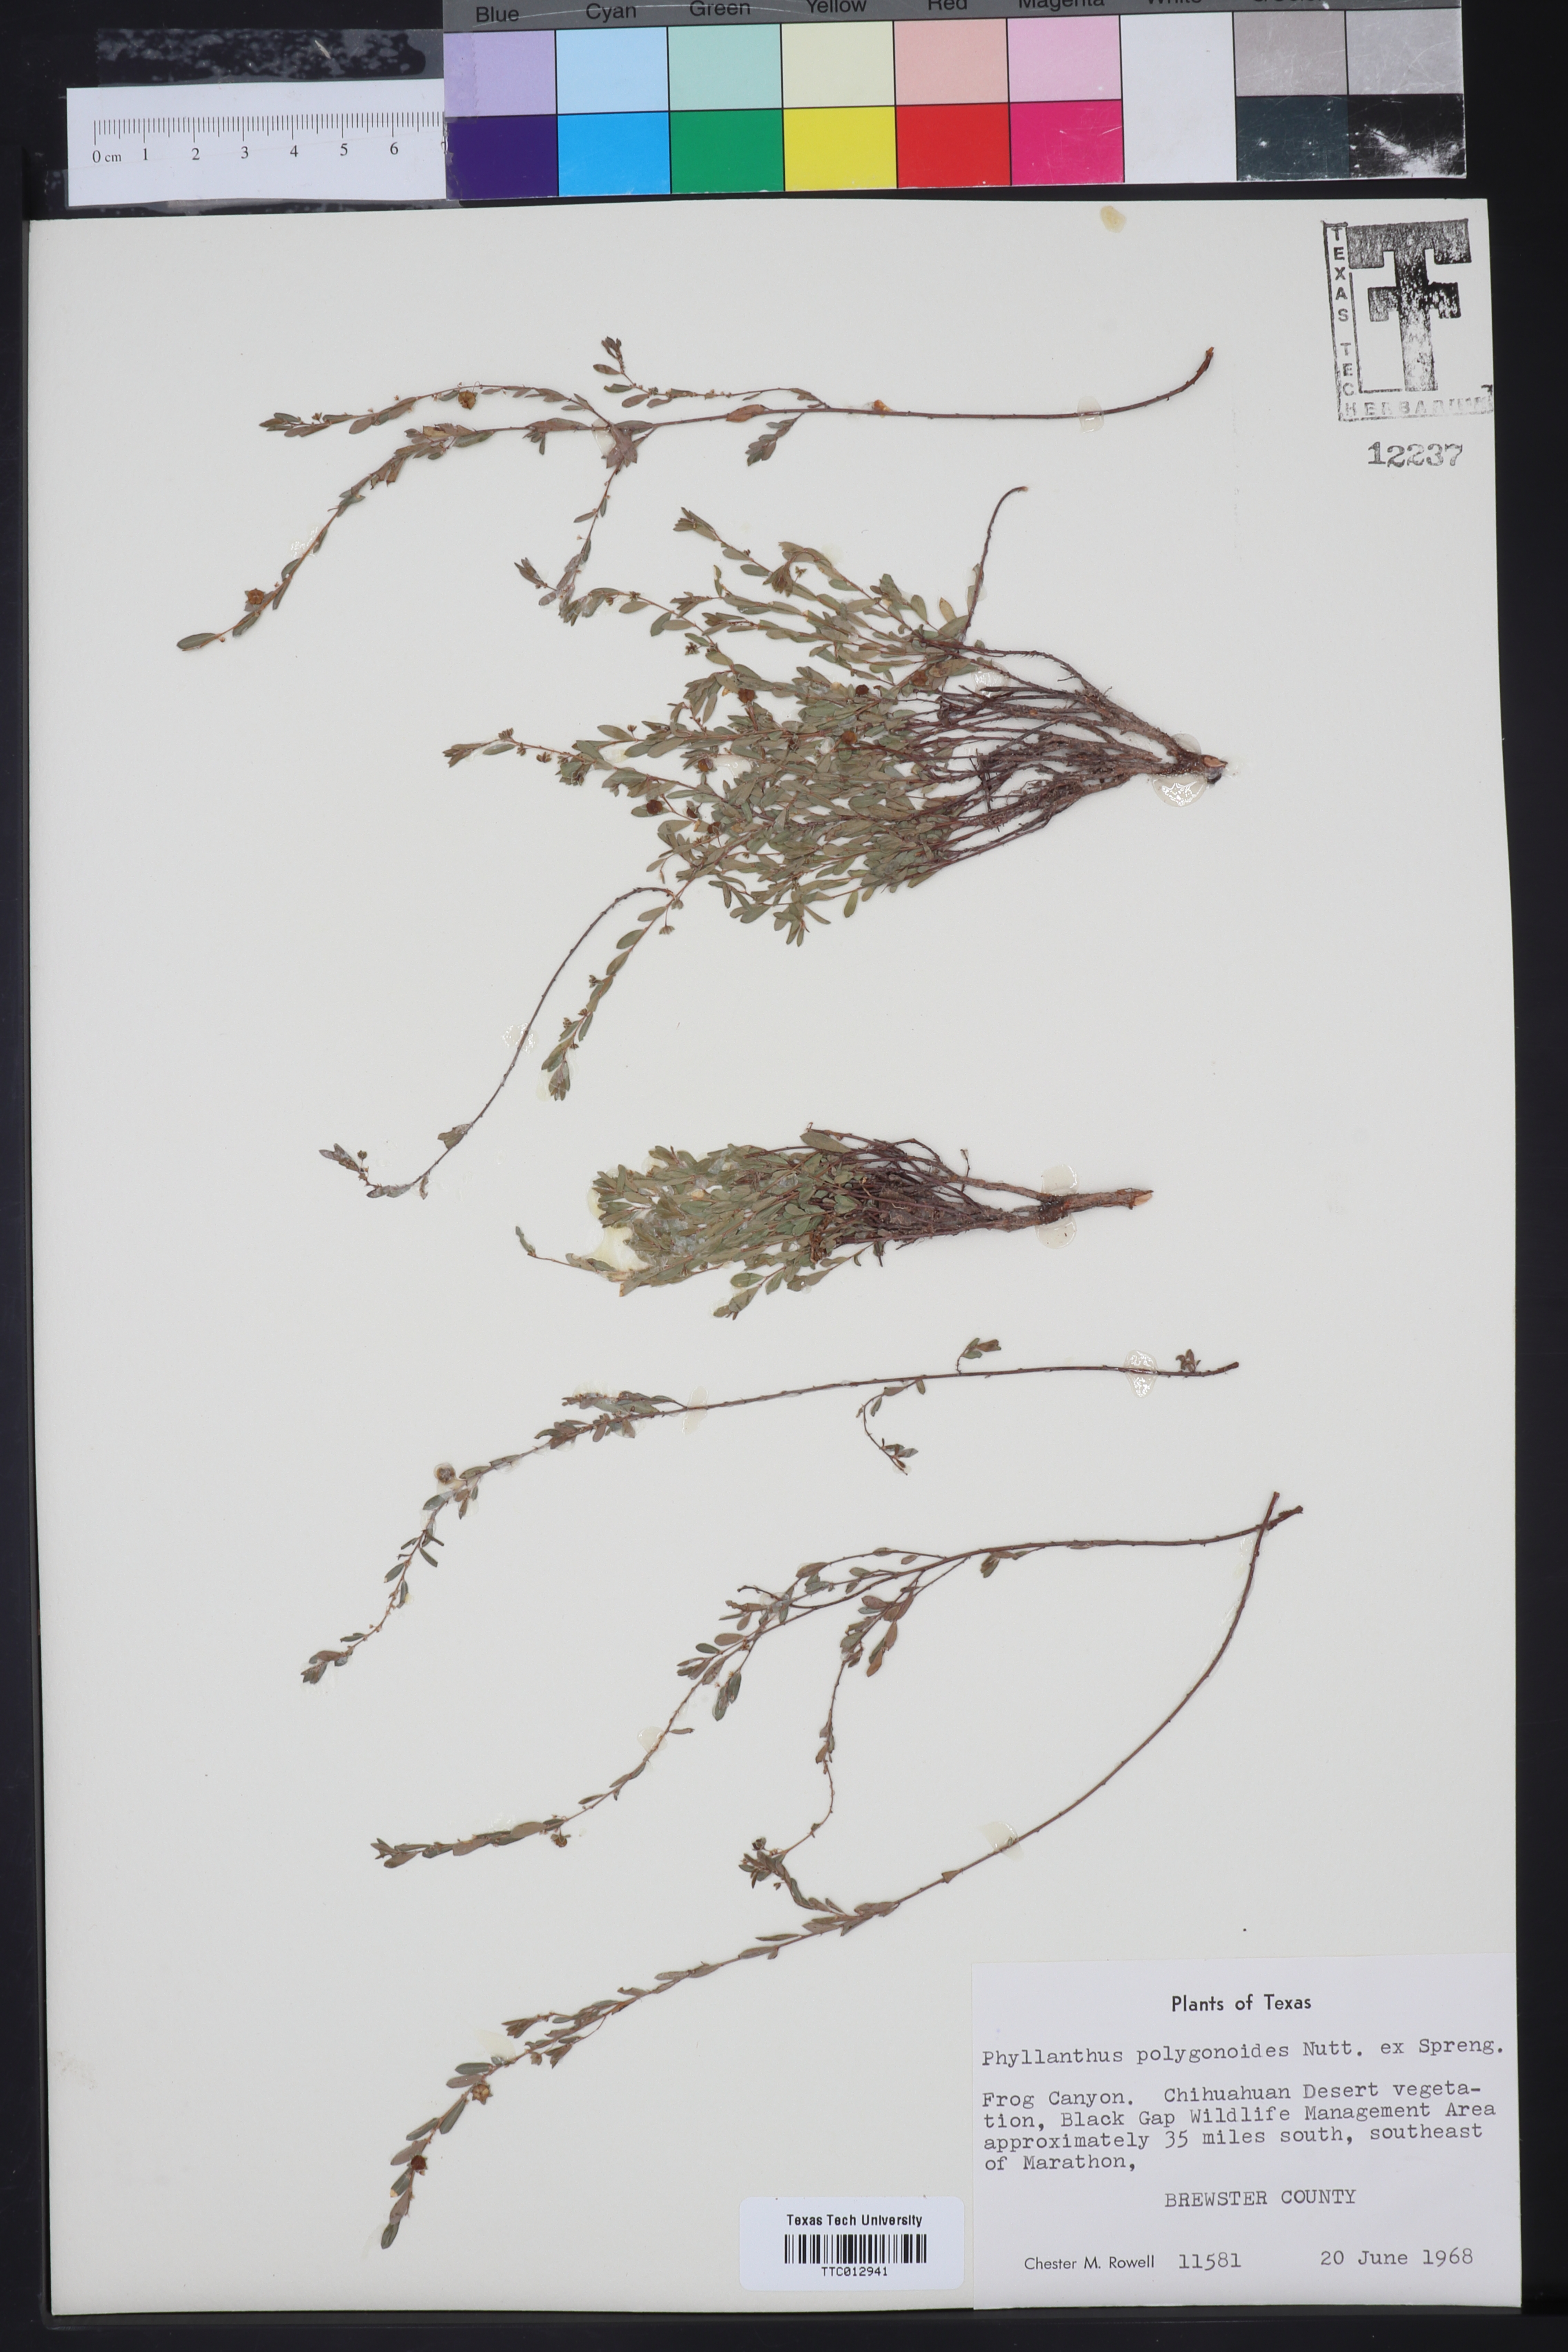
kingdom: Plantae
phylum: Tracheophyta
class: Magnoliopsida
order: Malpighiales
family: Phyllanthaceae
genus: Phyllanthus
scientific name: Phyllanthus polygonoides
